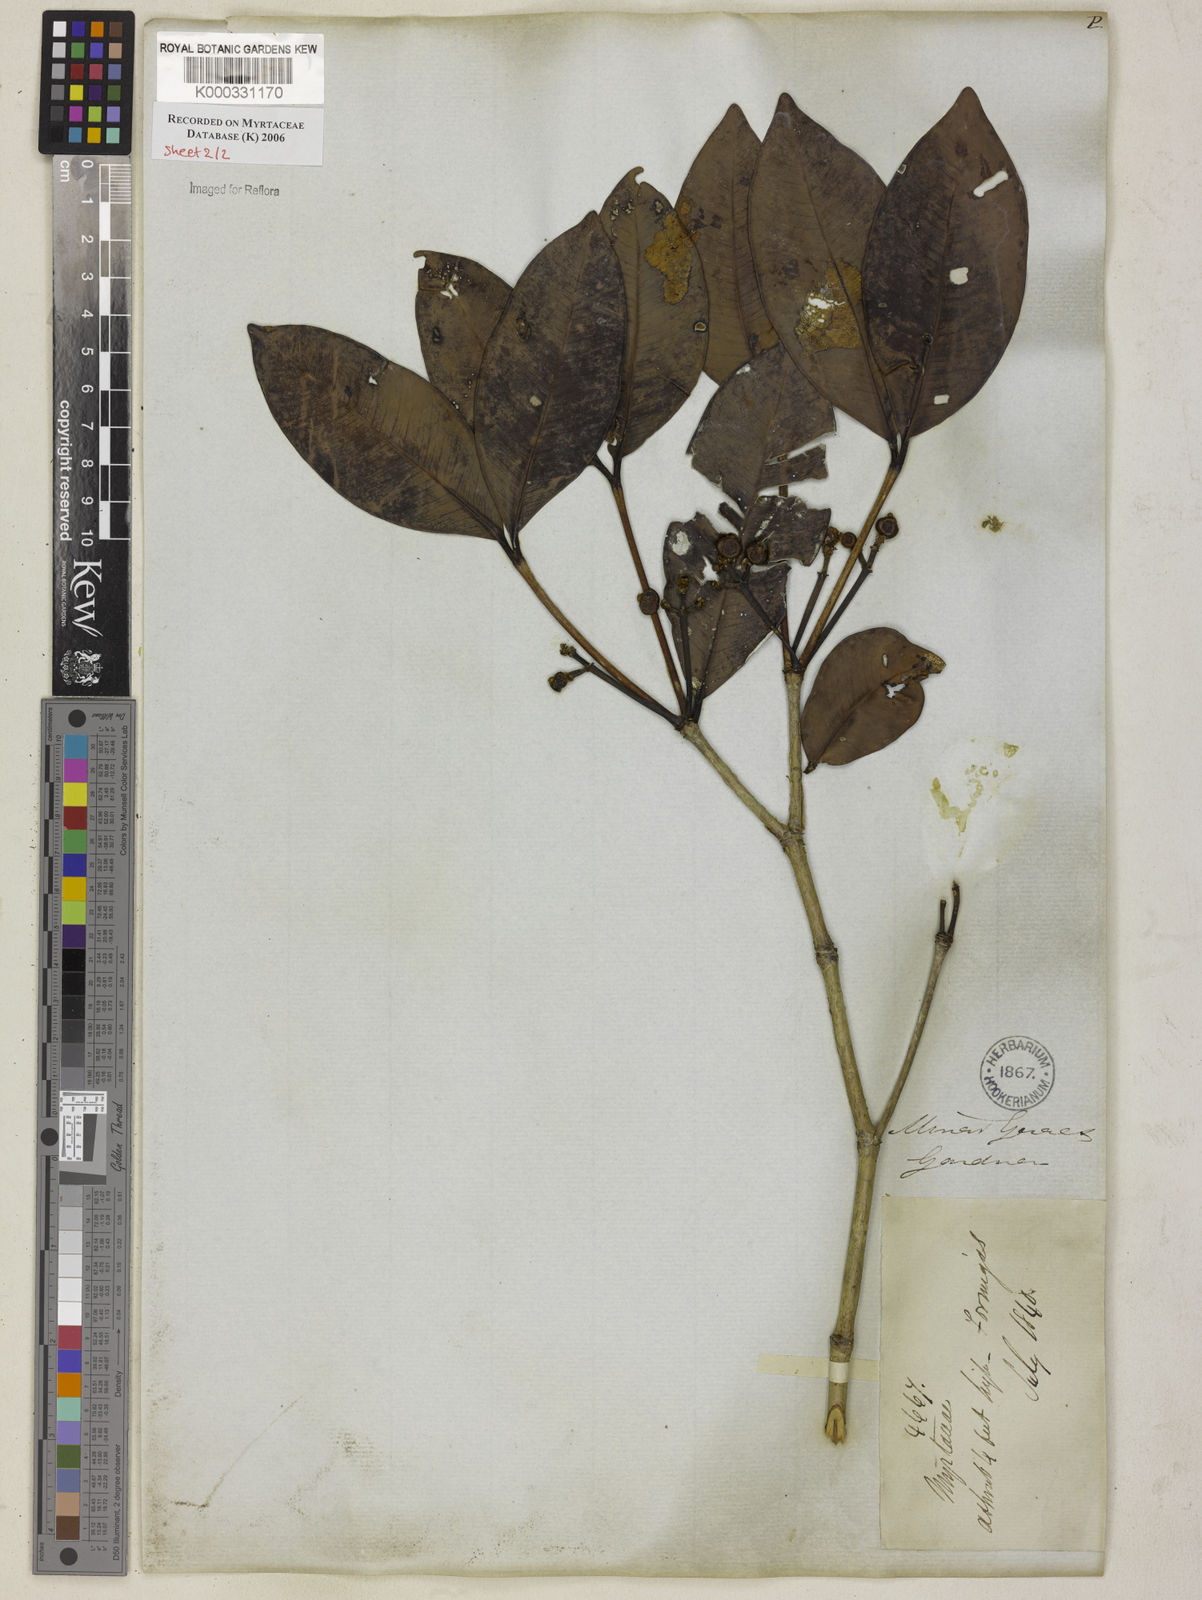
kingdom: Plantae
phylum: Tracheophyta
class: Magnoliopsida
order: Myrtales
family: Myrtaceae
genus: Calyptranthes
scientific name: Calyptranthes grandifolia
